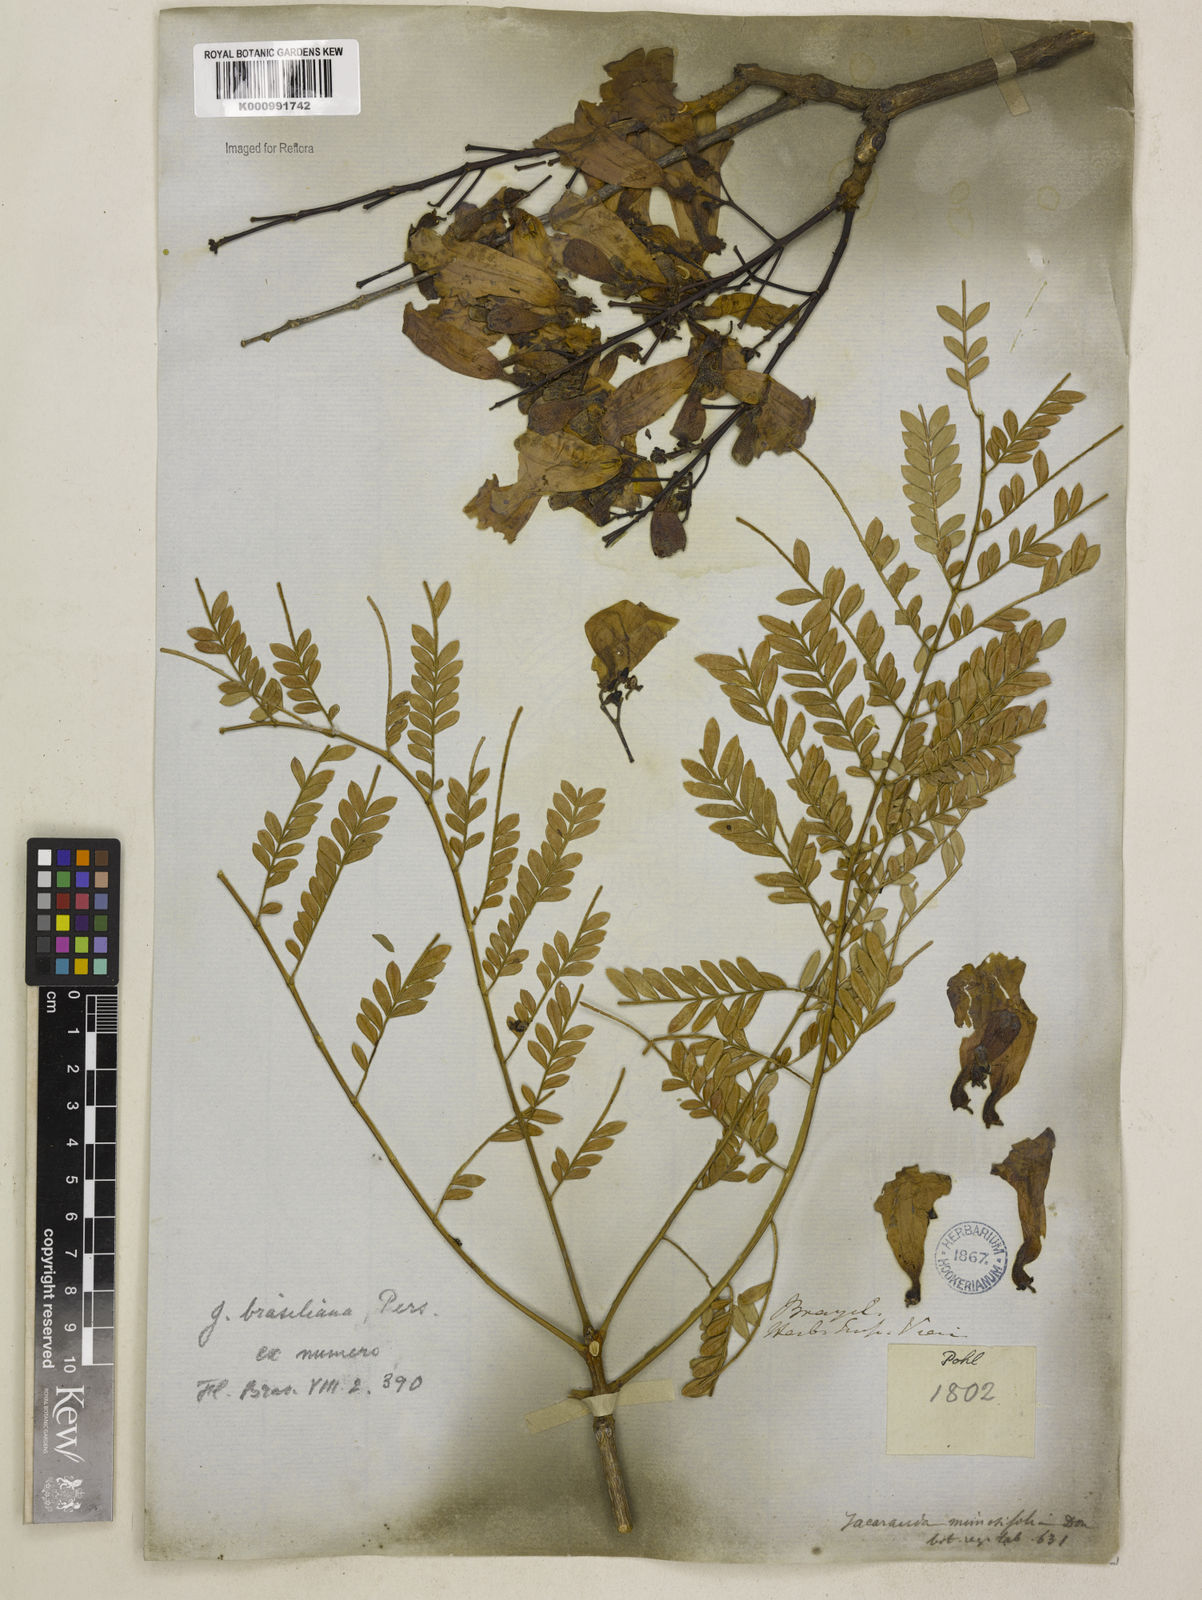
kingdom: Plantae
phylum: Tracheophyta
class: Magnoliopsida
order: Lamiales
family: Bignoniaceae
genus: Jacaranda
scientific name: Jacaranda brasiliana
